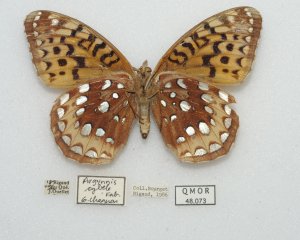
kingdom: Animalia
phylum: Arthropoda
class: Insecta
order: Lepidoptera
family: Nymphalidae
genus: Speyeria
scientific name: Speyeria cybele
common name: Great Spangled Fritillary
